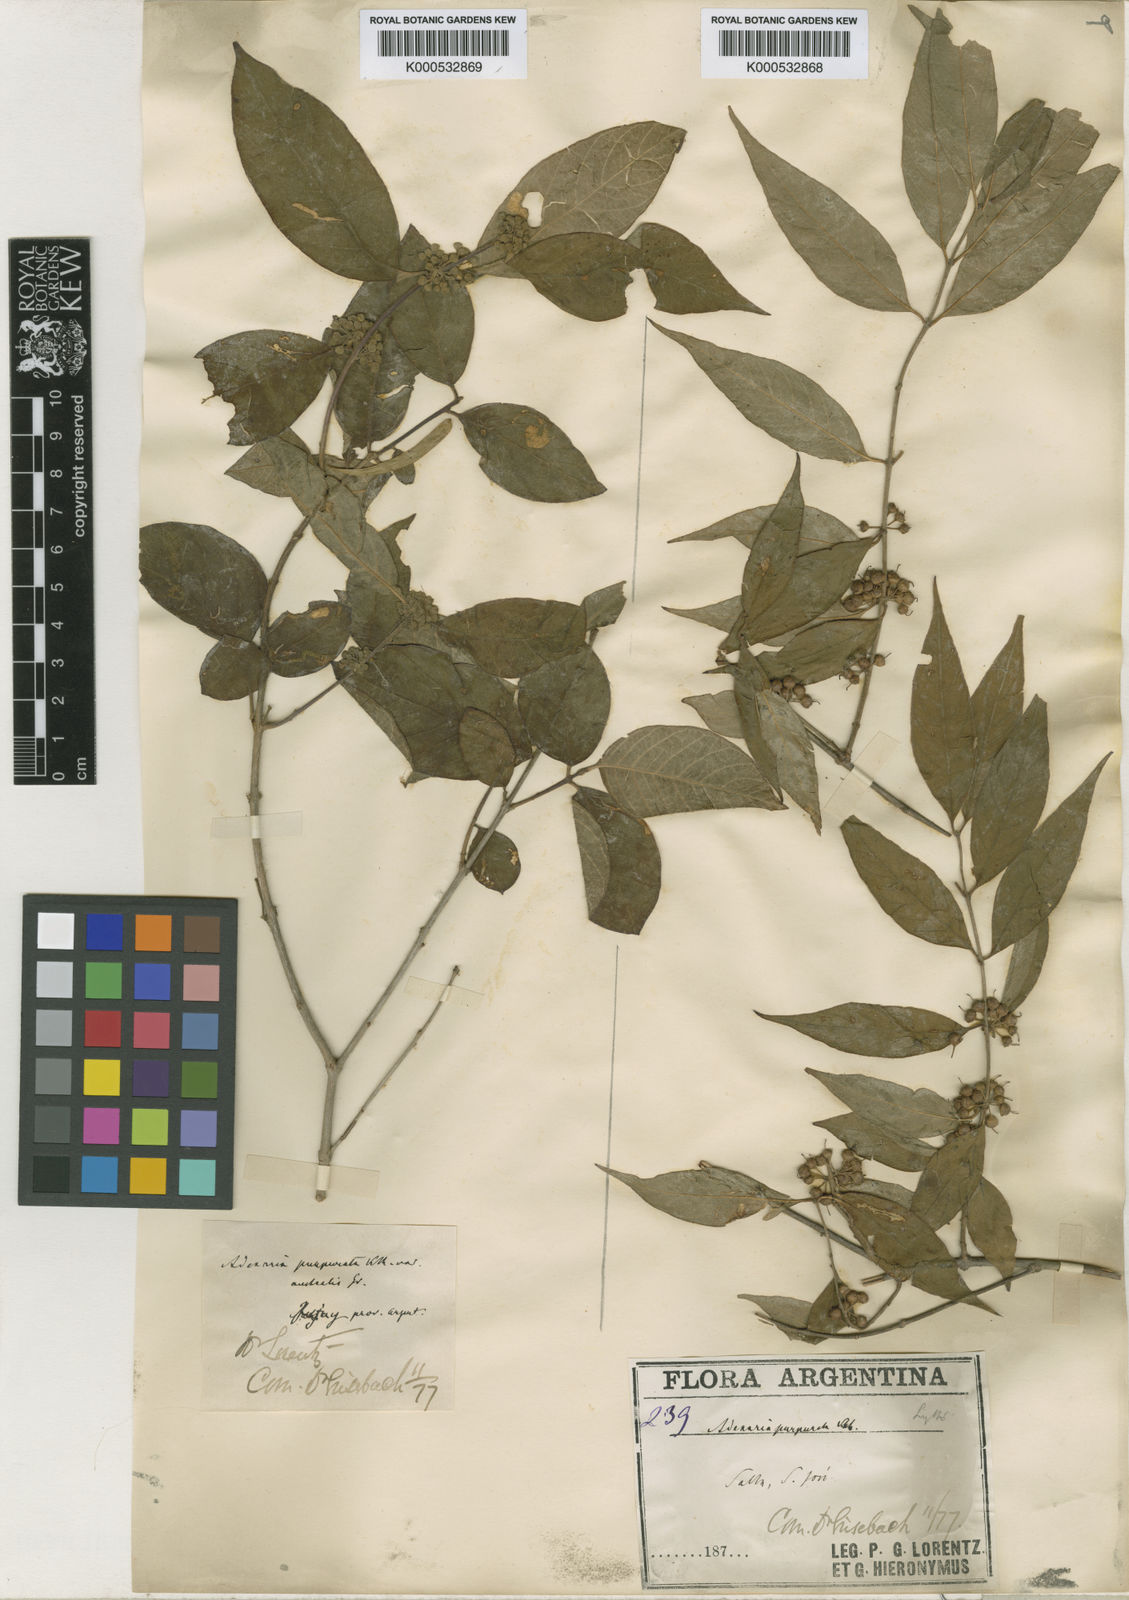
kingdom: Plantae
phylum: Tracheophyta
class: Magnoliopsida
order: Myrtales
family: Lythraceae
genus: Adenaria
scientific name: Adenaria floribunda
